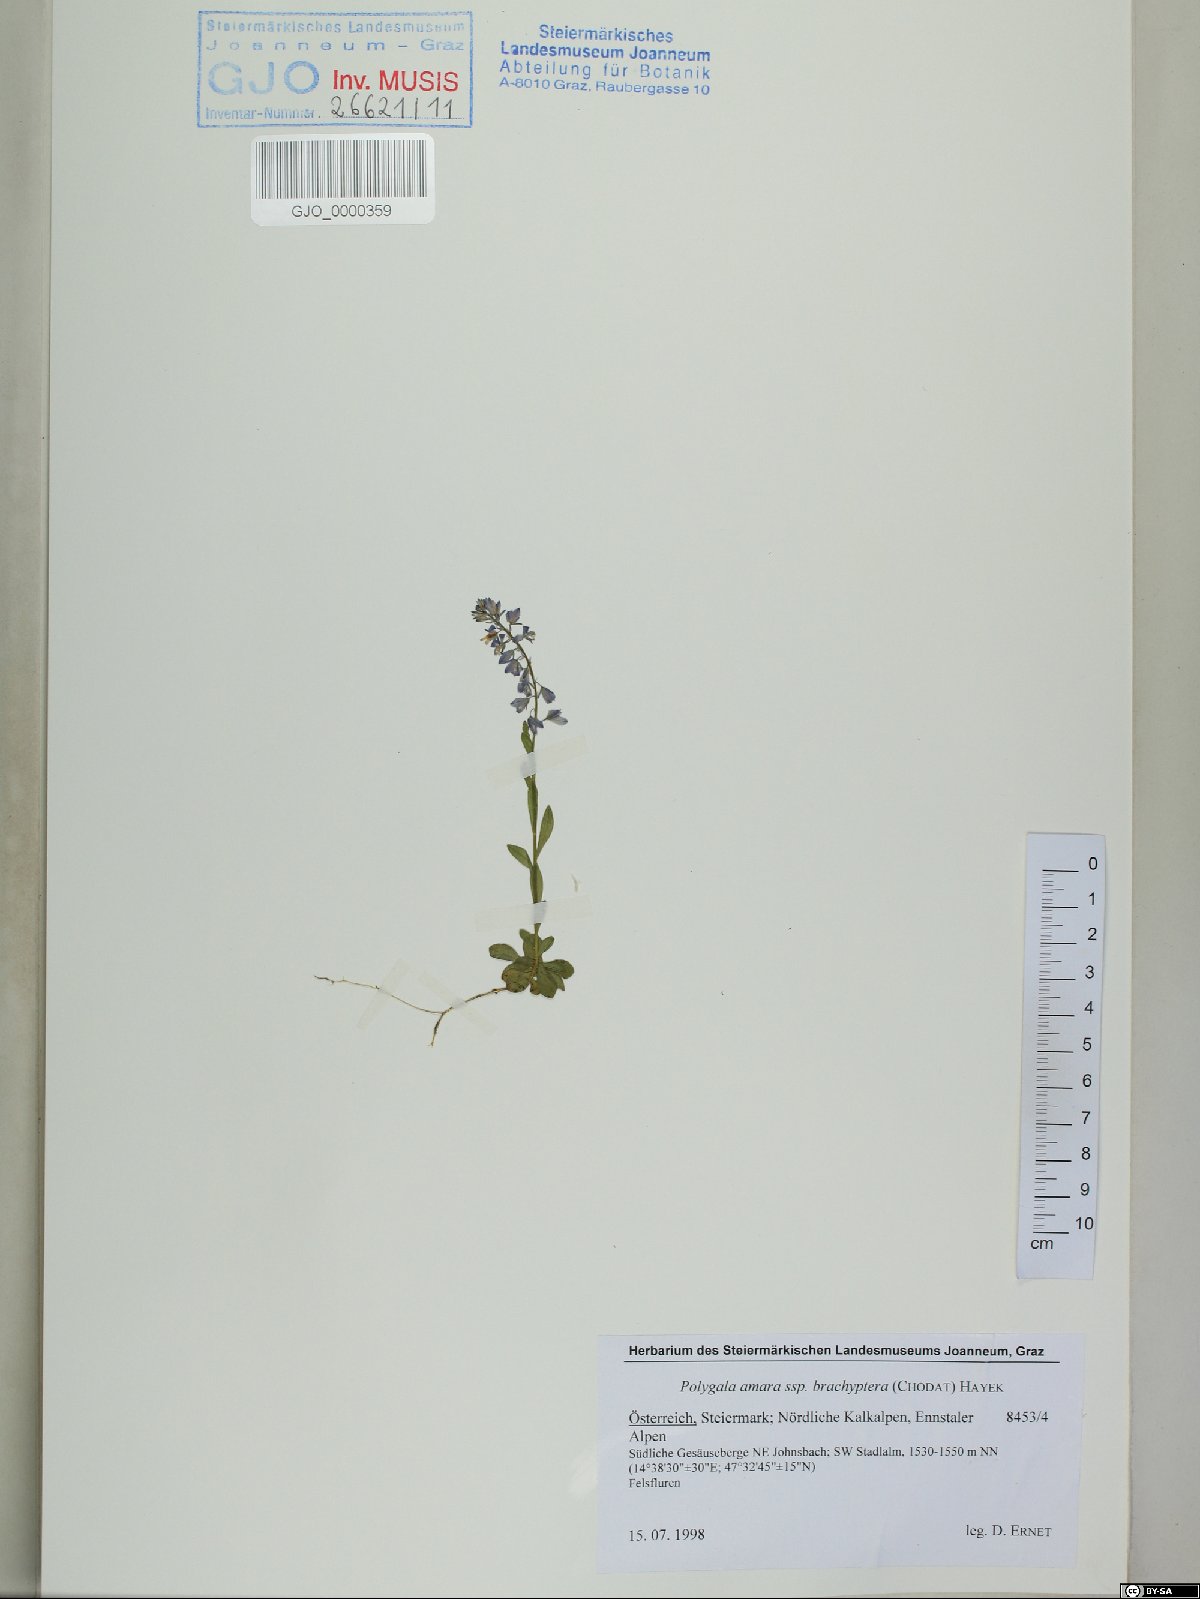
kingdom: Plantae
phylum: Tracheophyta
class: Magnoliopsida
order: Fabales
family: Polygalaceae
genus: Polygala
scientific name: Polygala amara
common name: Milkwort
